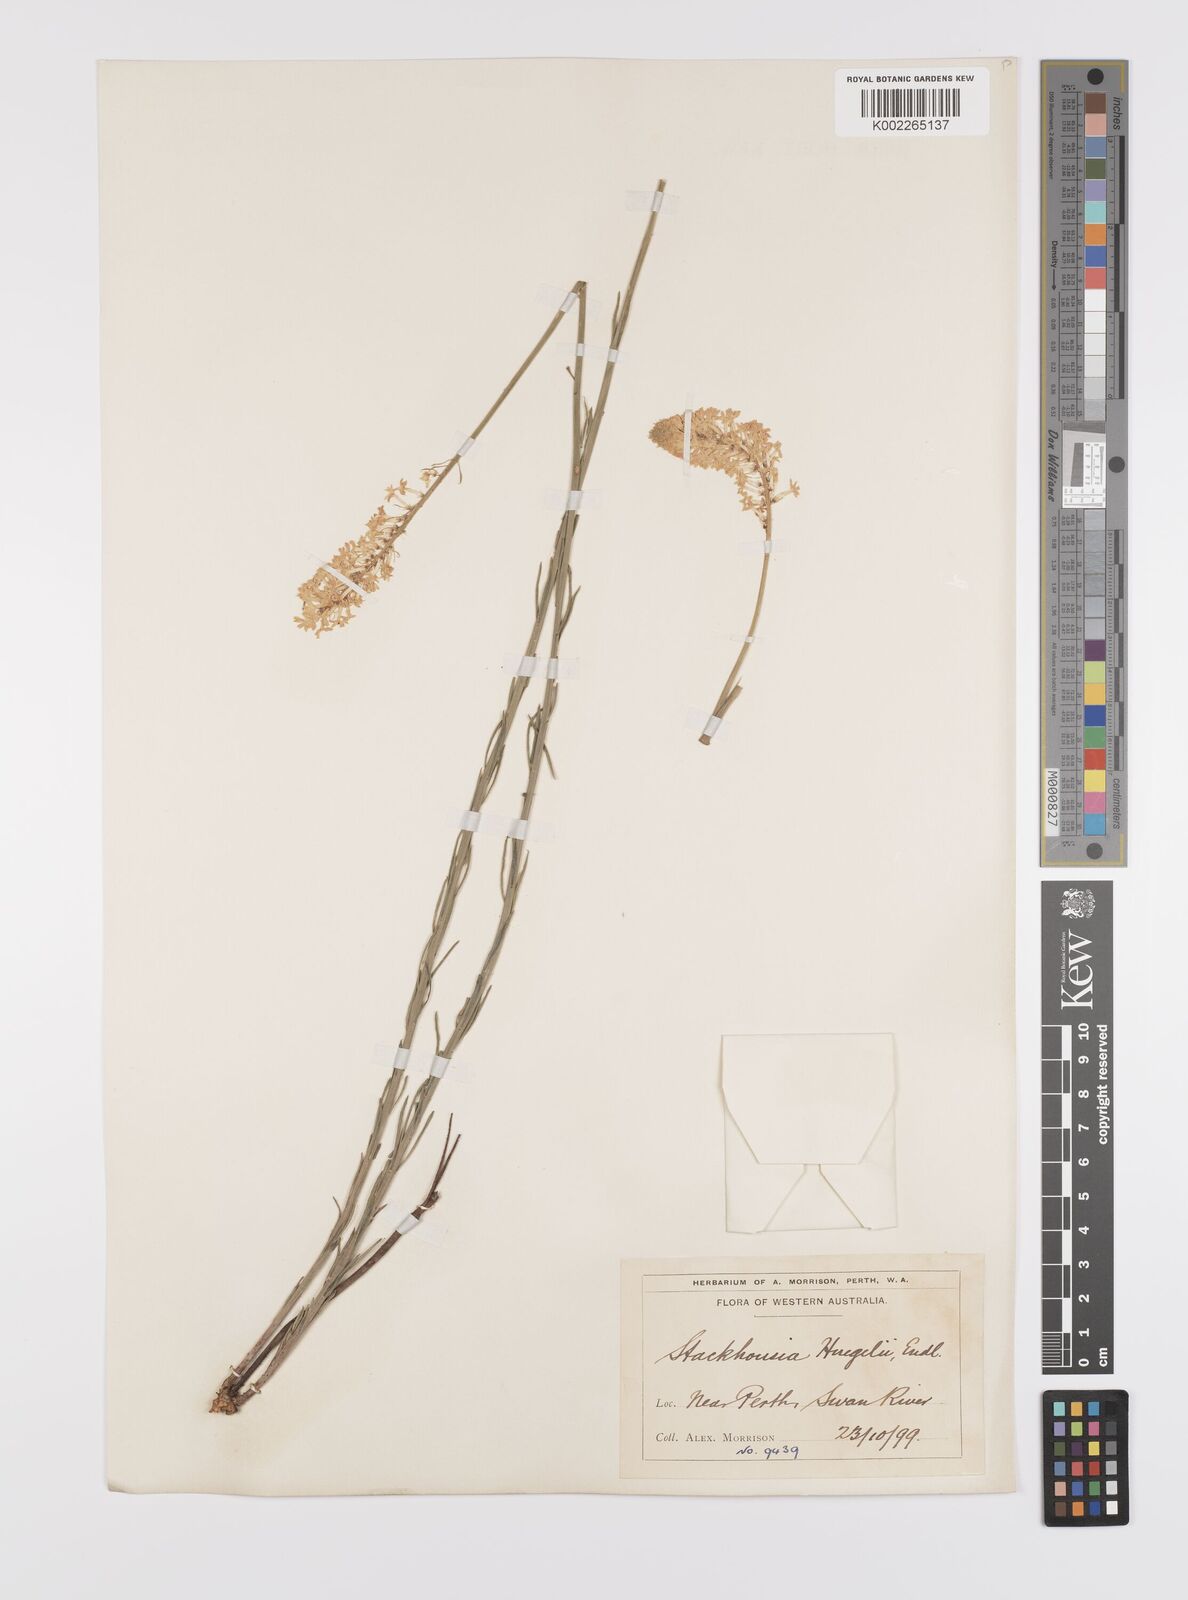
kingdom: Plantae
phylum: Tracheophyta
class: Magnoliopsida
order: Celastrales
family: Celastraceae
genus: Stackhousia
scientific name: Stackhousia monogyna
